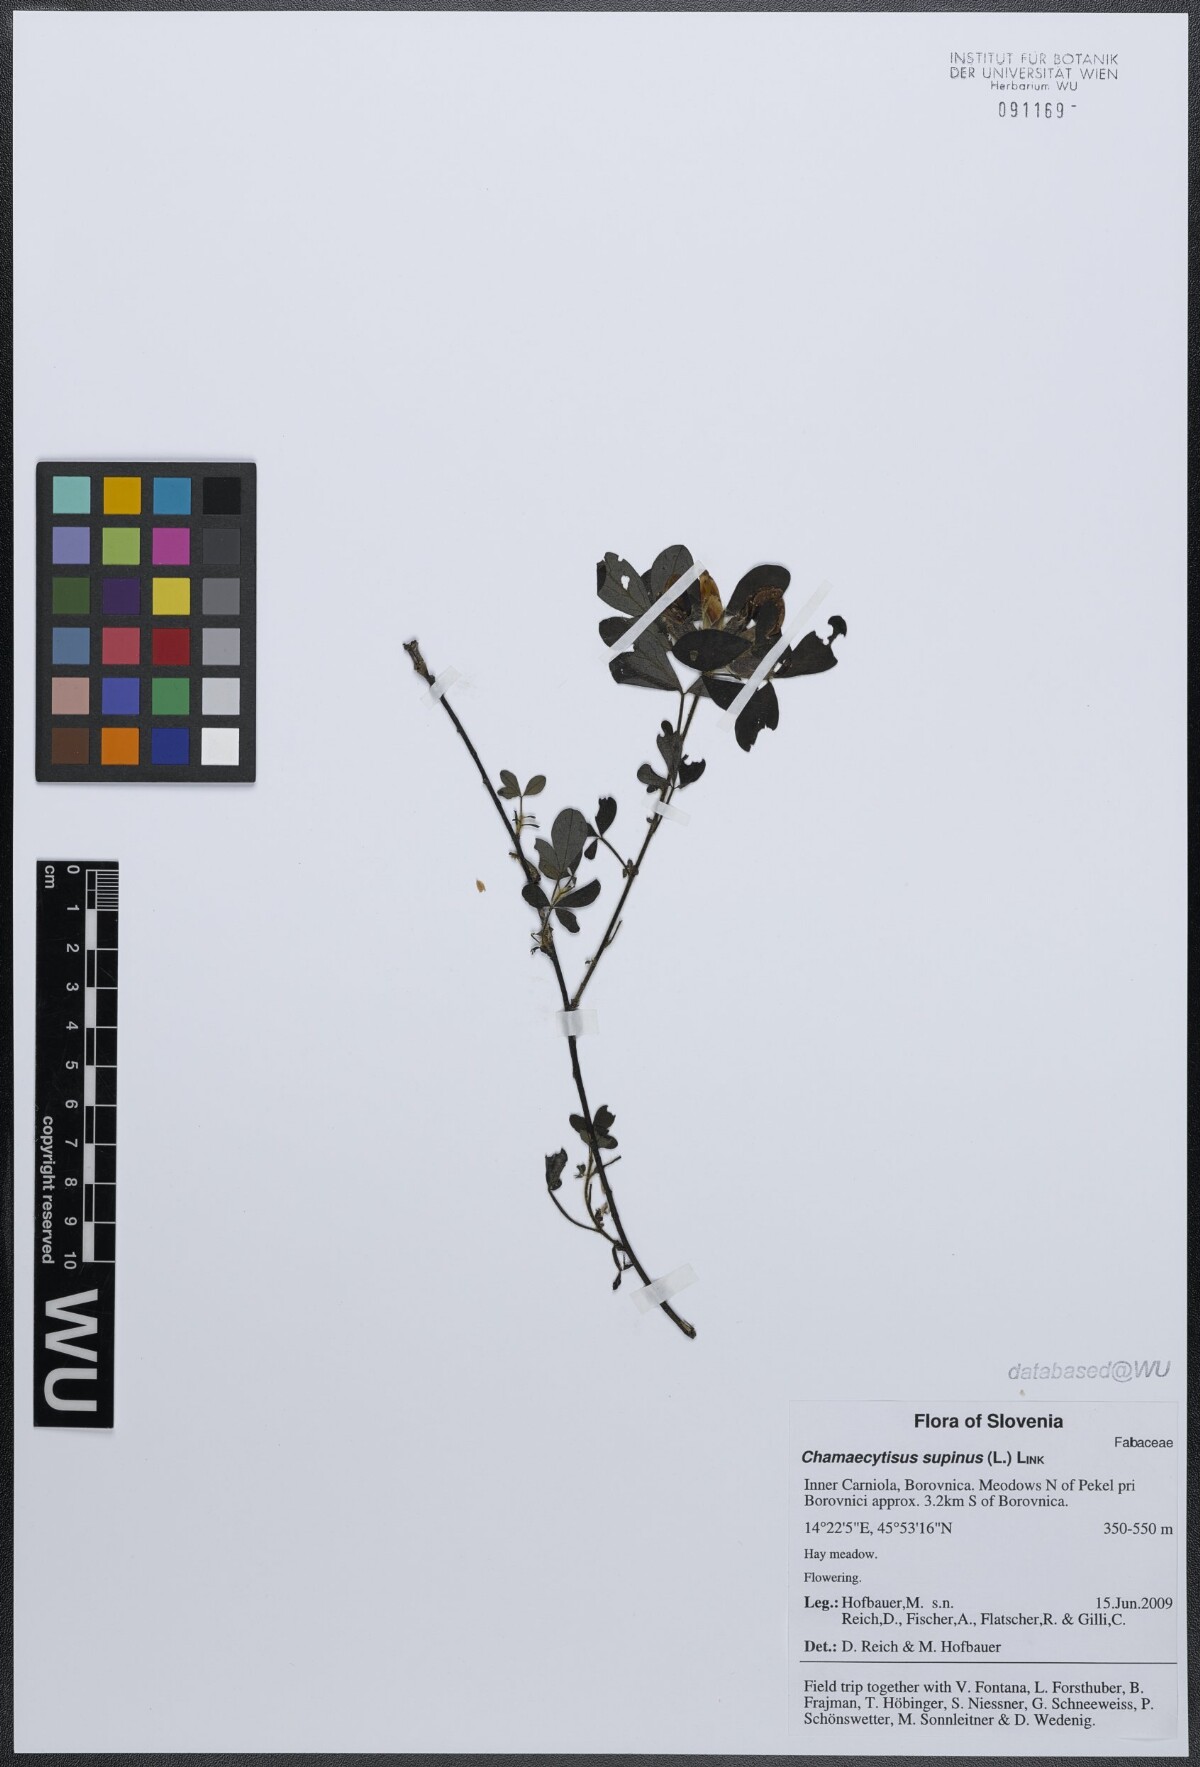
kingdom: Plantae
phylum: Tracheophyta
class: Magnoliopsida
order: Fabales
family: Fabaceae
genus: Chamaecytisus
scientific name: Chamaecytisus supinus
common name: Clustered broom
